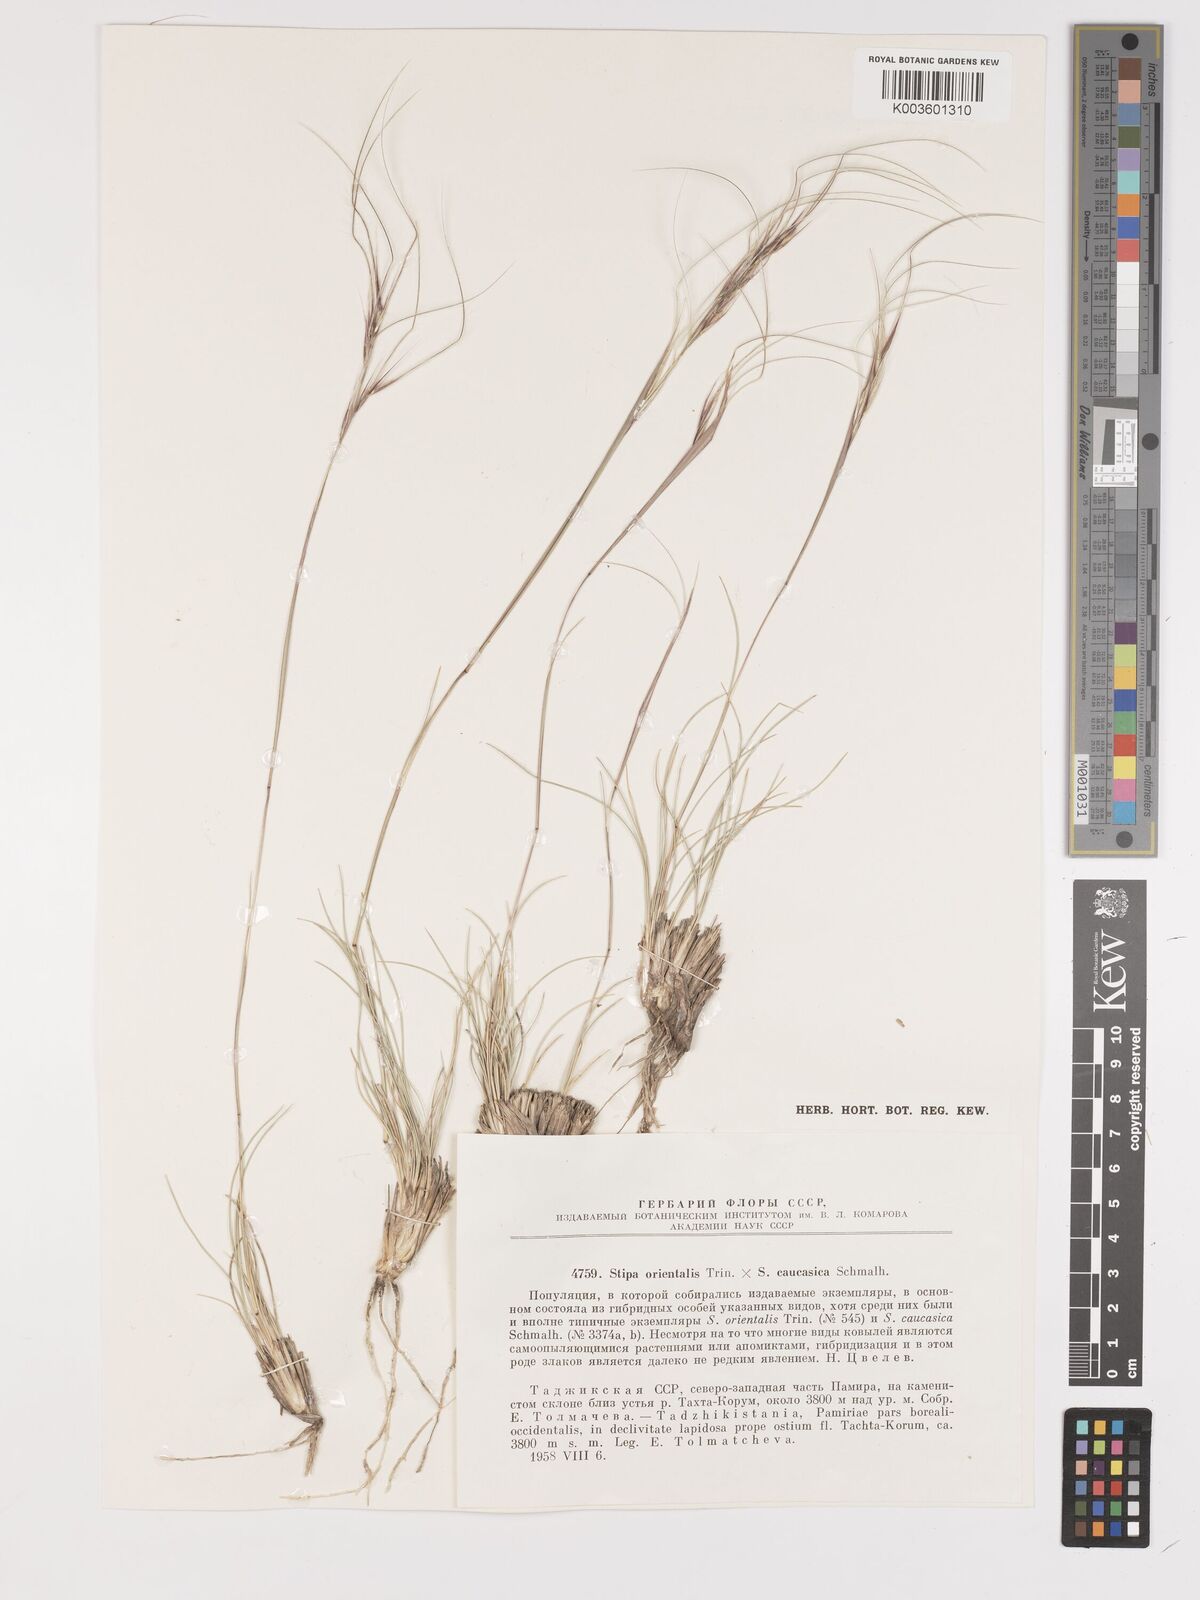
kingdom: Plantae
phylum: Tracheophyta
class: Liliopsida
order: Poales
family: Poaceae
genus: Achnatherum
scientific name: Achnatherum turcomanicum
